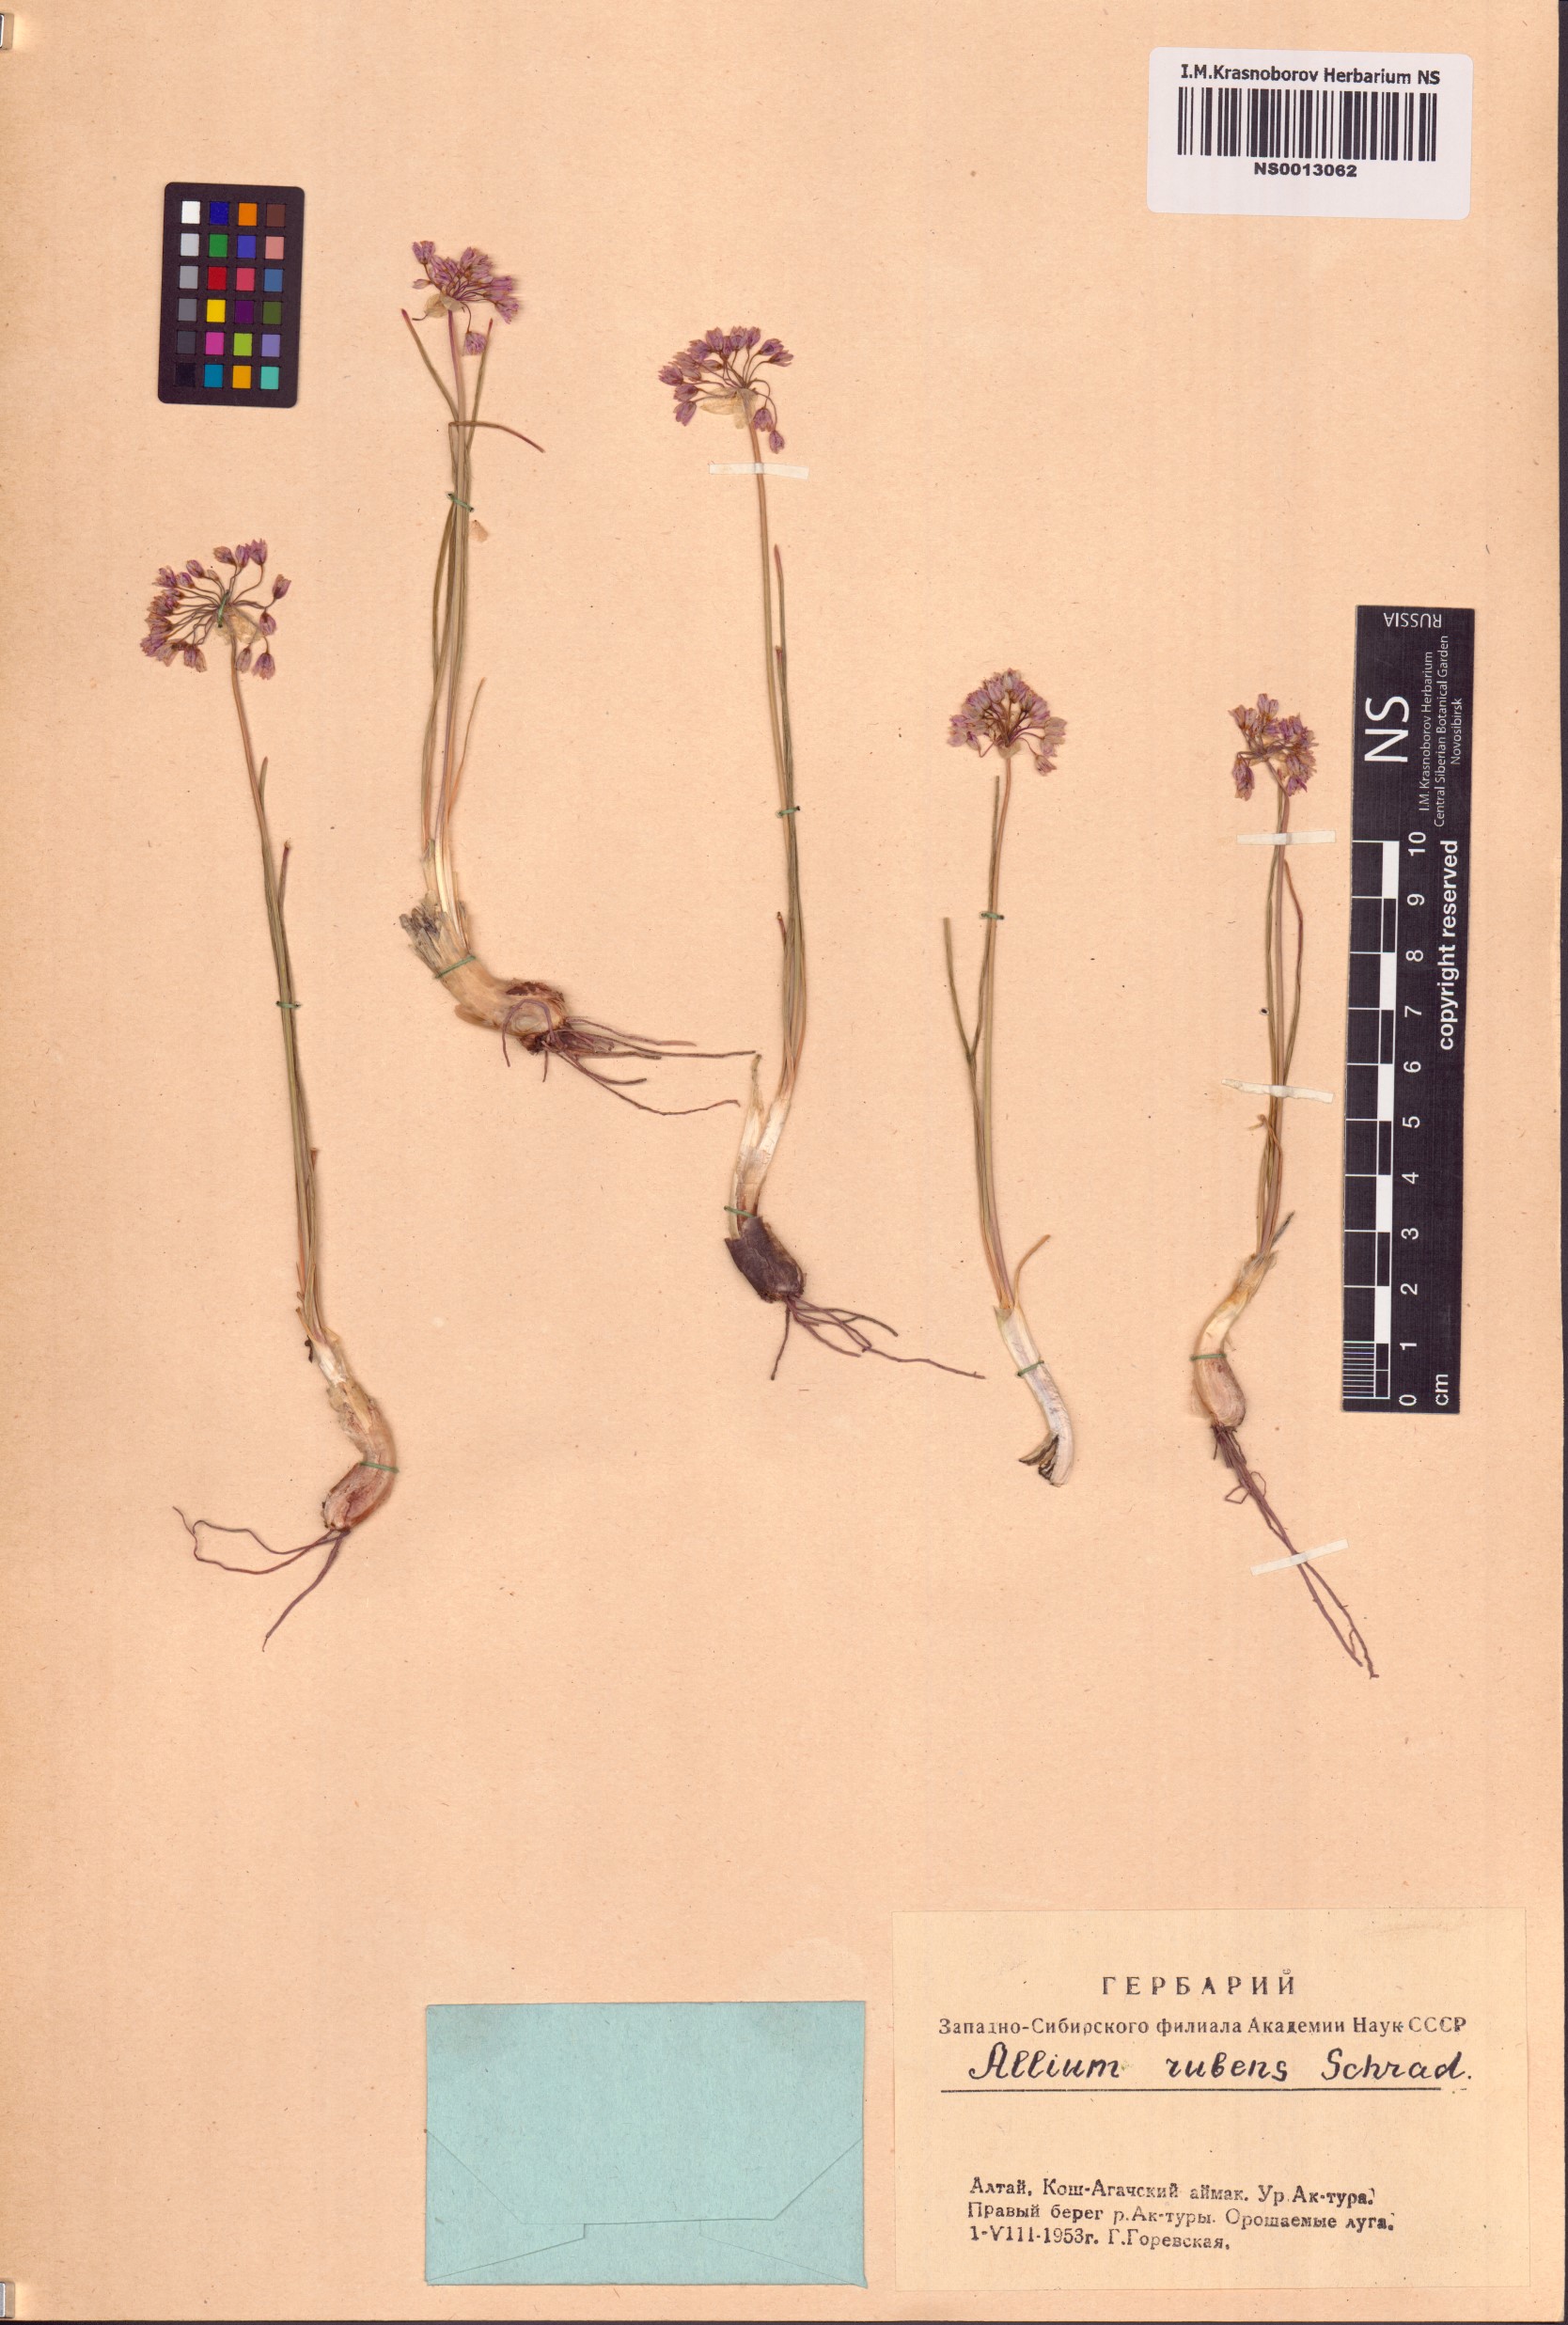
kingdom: Plantae
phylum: Tracheophyta
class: Liliopsida
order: Asparagales
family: Amaryllidaceae
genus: Allium
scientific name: Allium rubens
